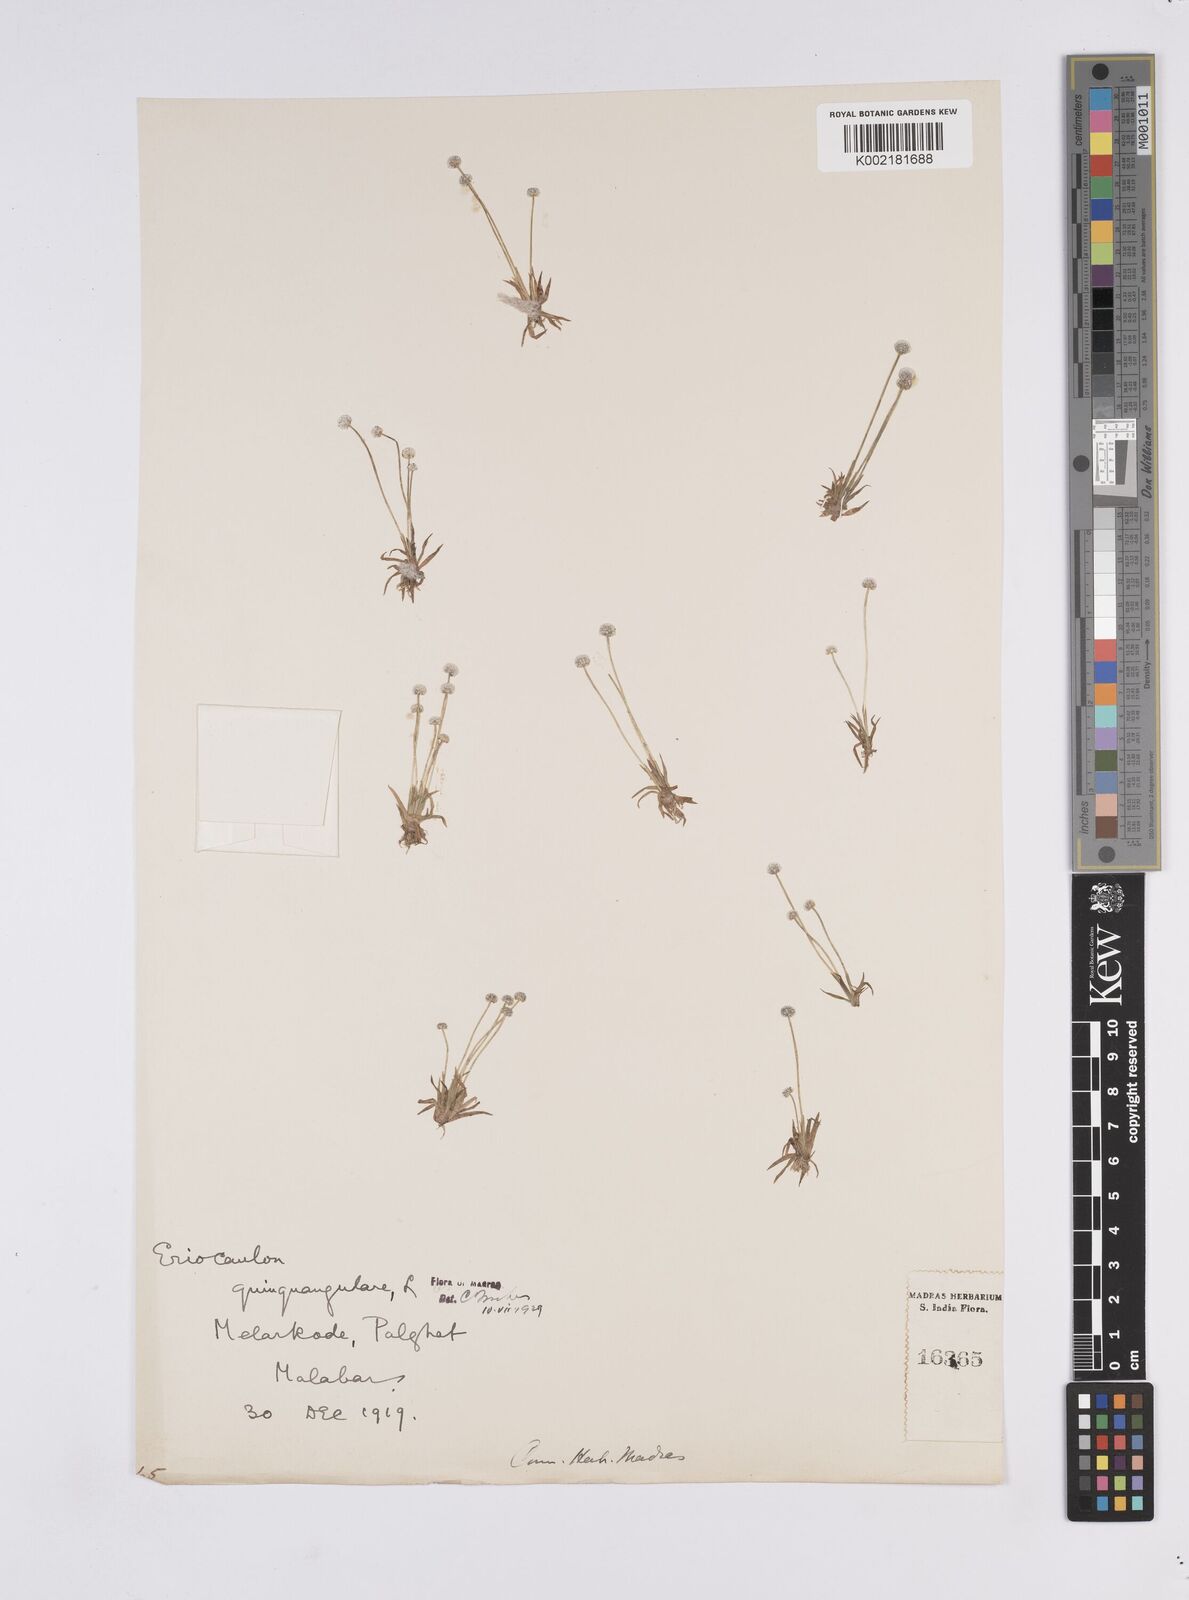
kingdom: Plantae
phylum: Tracheophyta
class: Liliopsida
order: Poales
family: Eriocaulaceae
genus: Eriocaulon
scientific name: Eriocaulon quinquangulare
